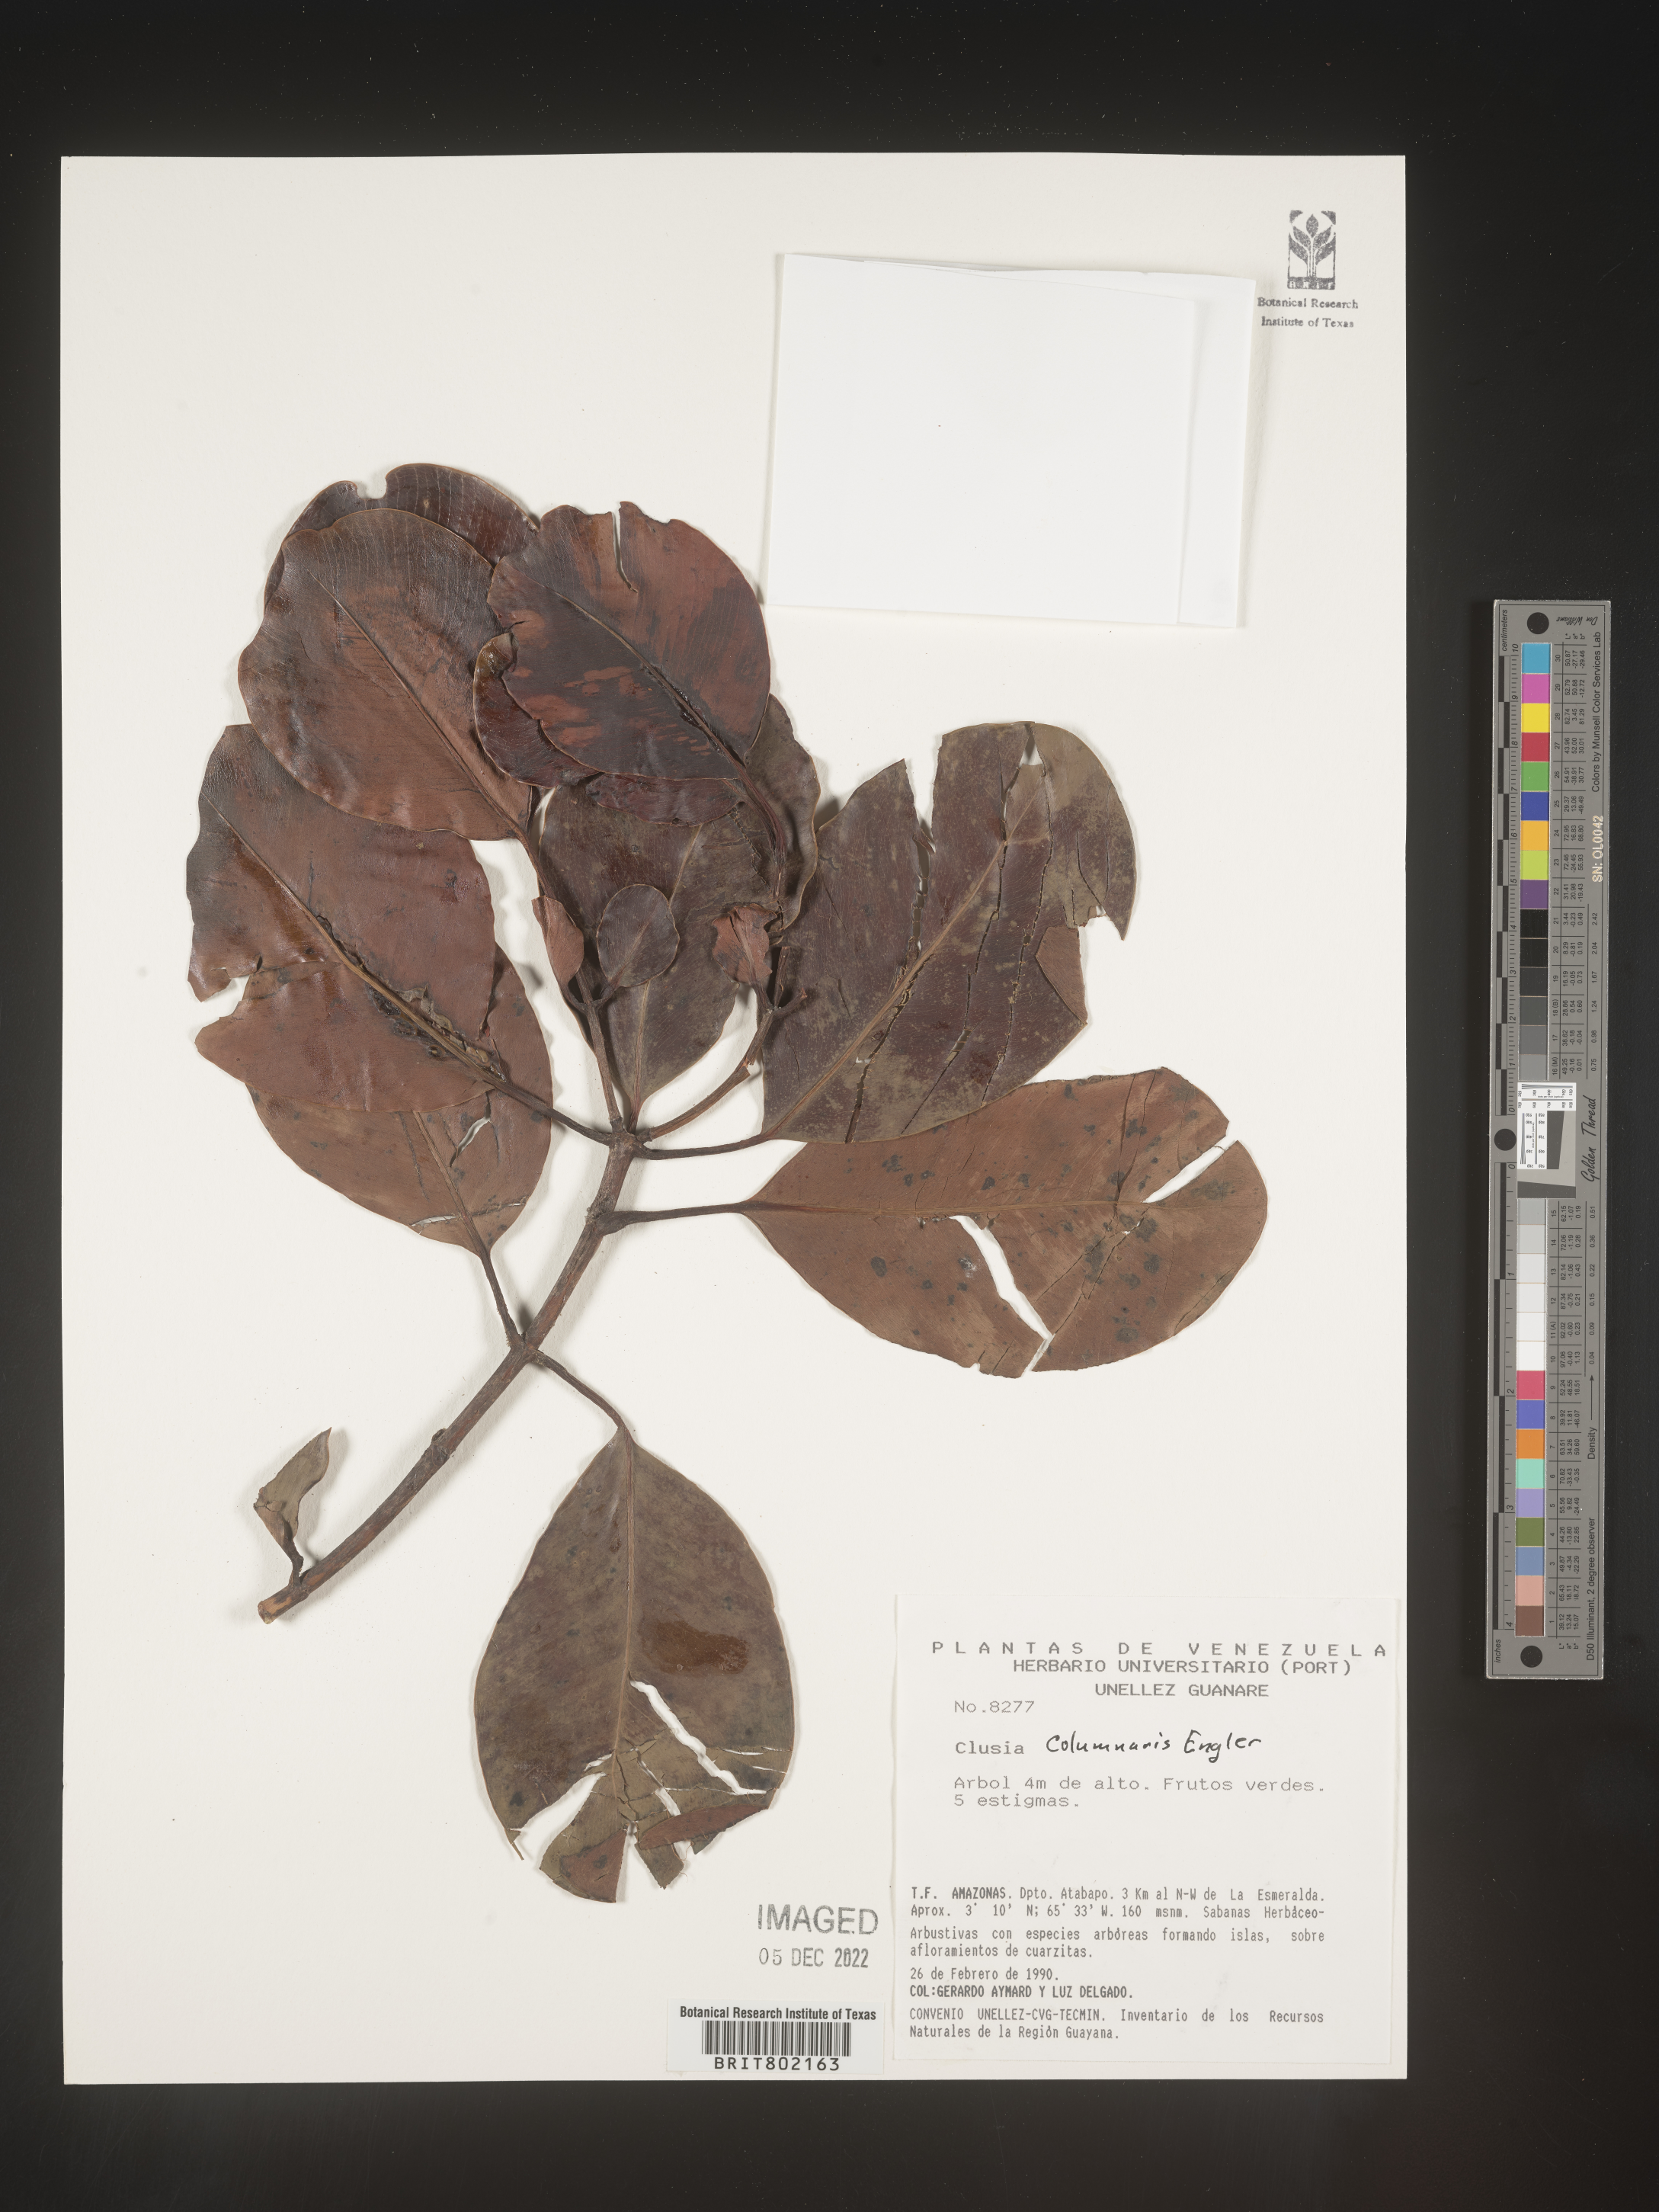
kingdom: Plantae
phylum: Tracheophyta
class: Magnoliopsida
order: Malpighiales
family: Clusiaceae
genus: Clusia
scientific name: Clusia columnaris
